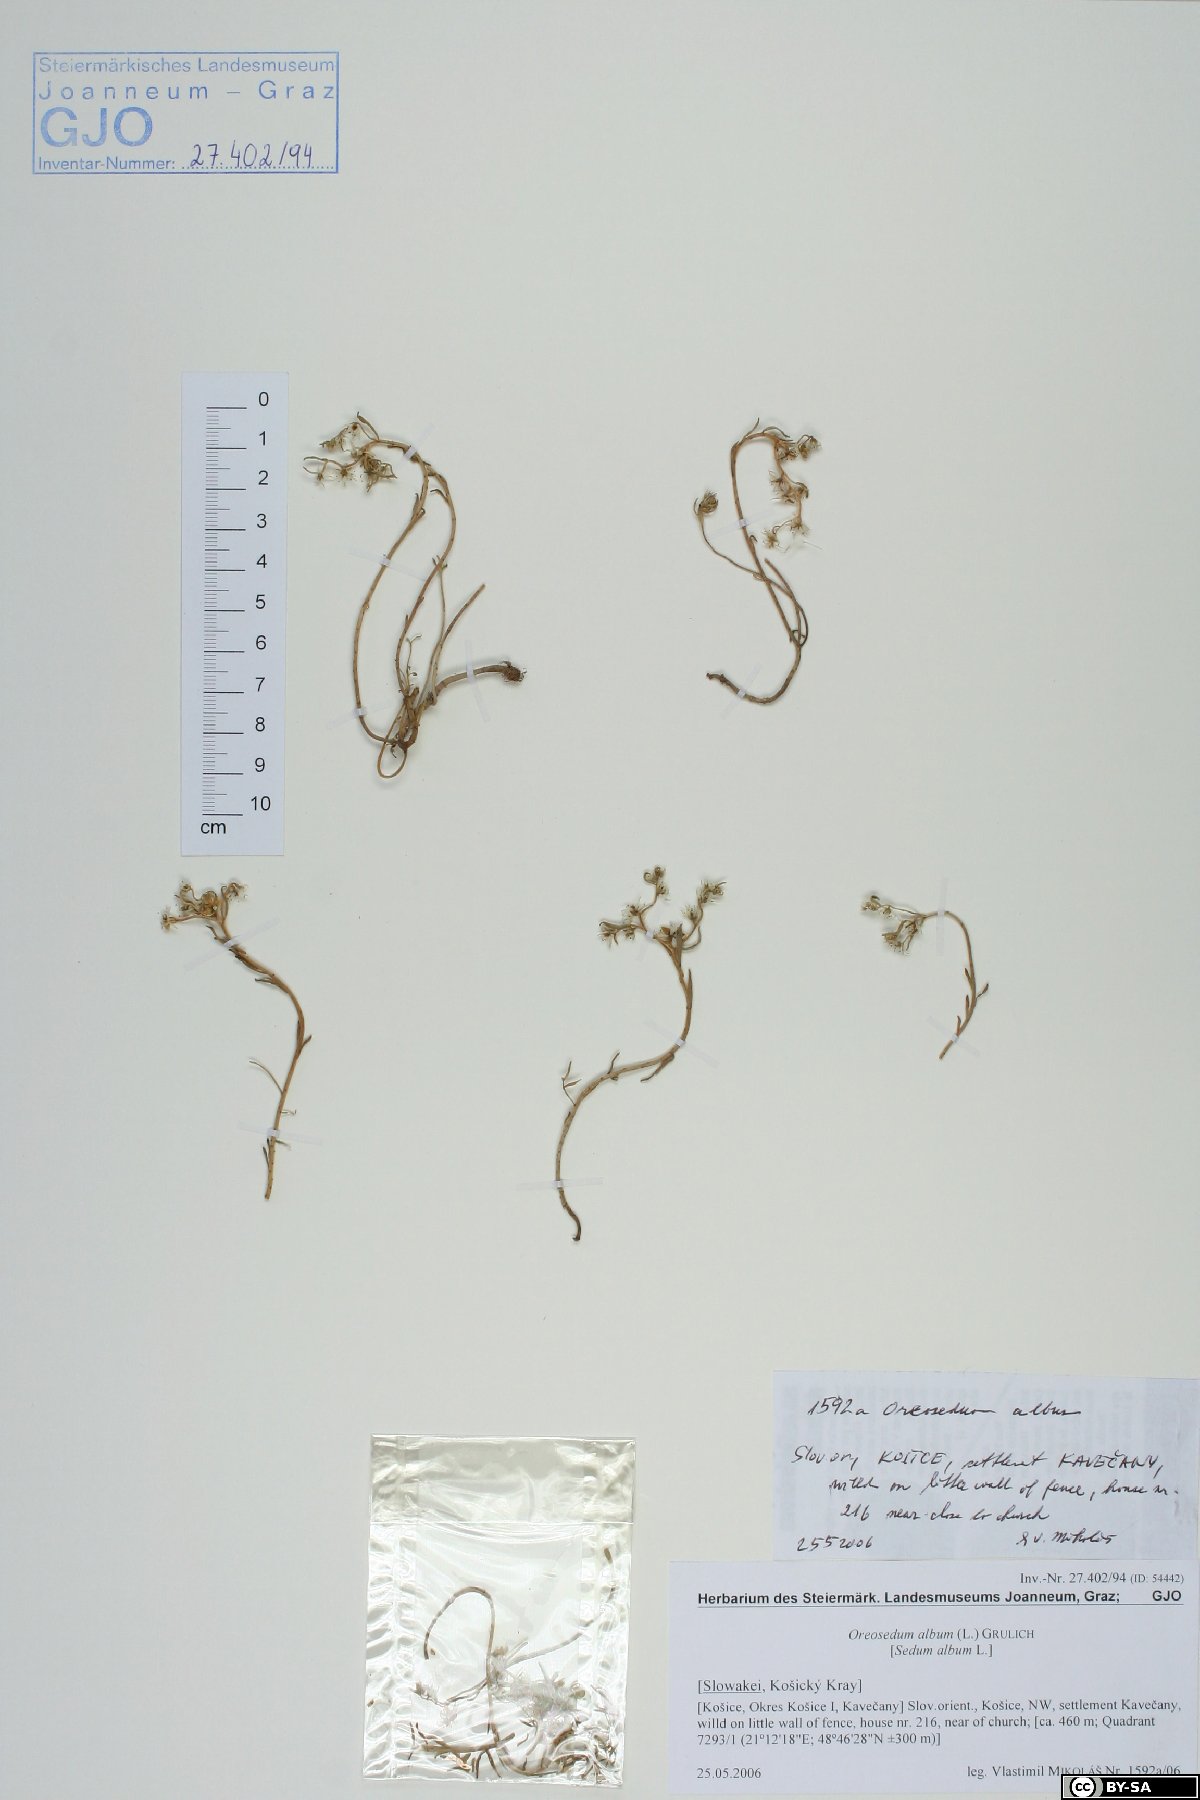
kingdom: Plantae
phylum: Tracheophyta
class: Magnoliopsida
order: Saxifragales
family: Crassulaceae
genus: Sedum
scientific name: Sedum album
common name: White stonecrop
